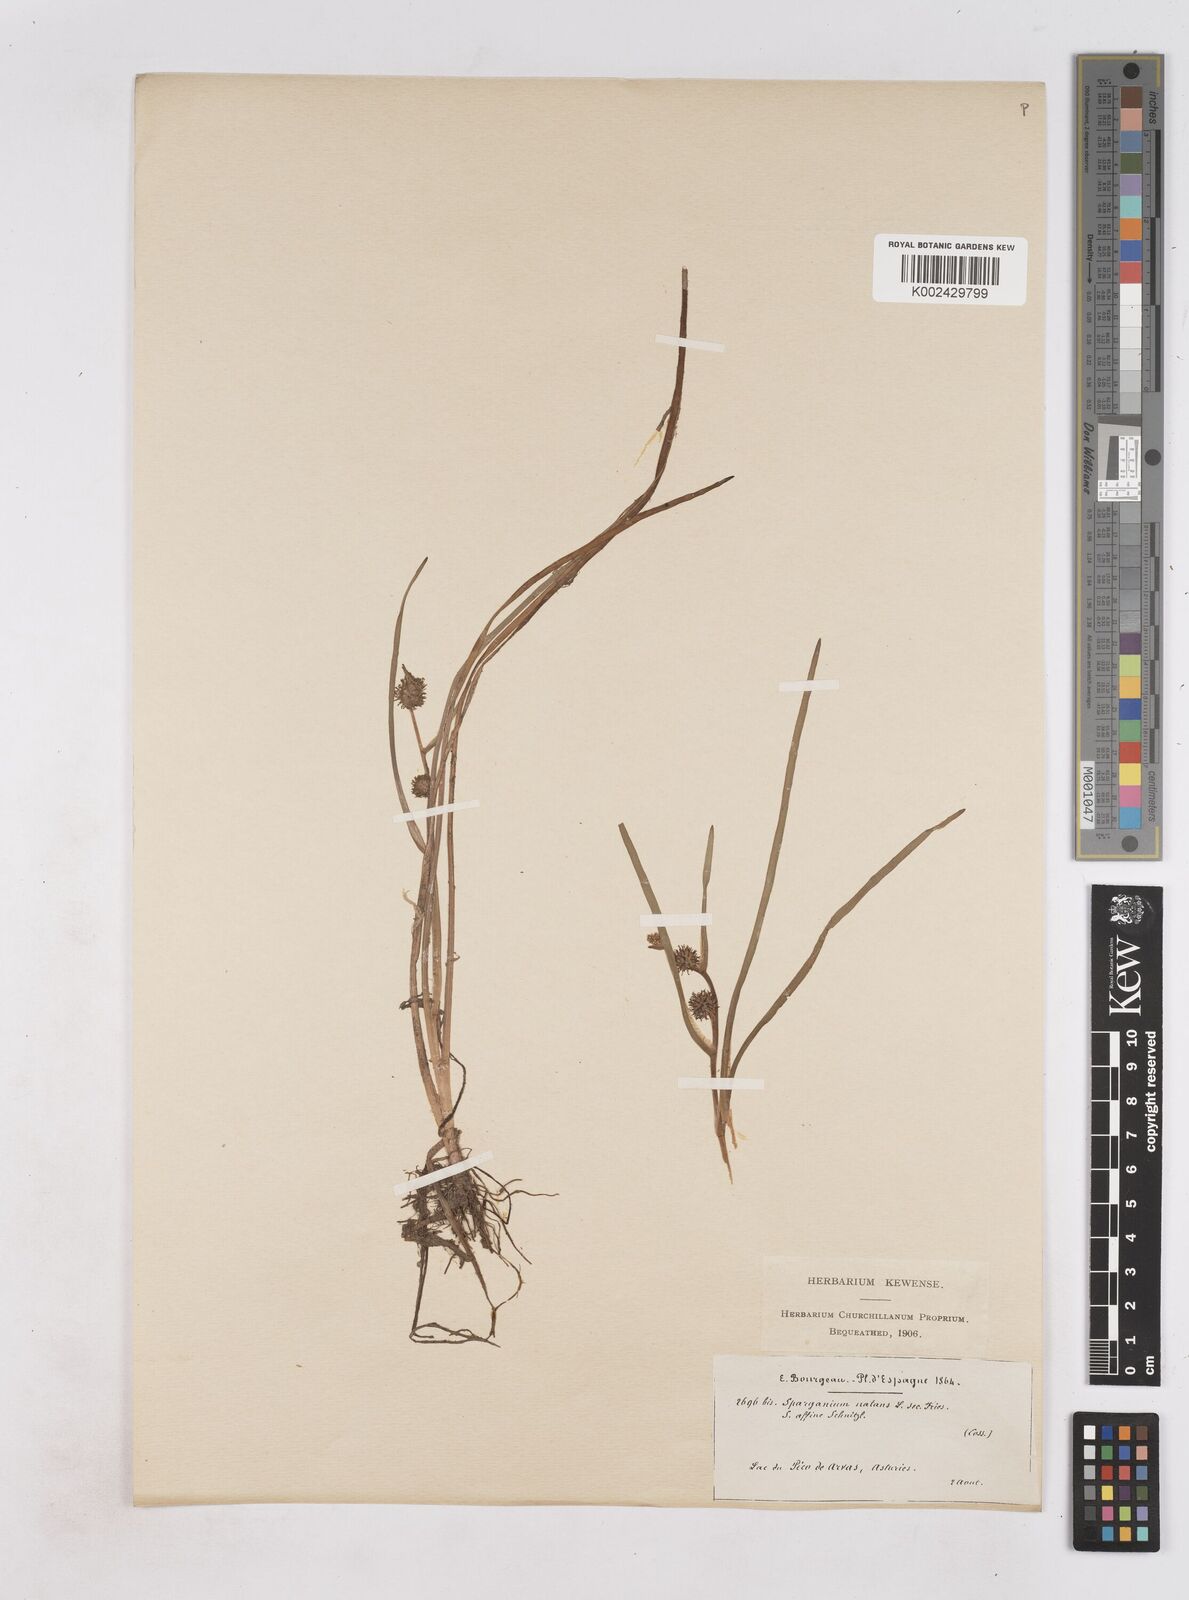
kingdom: Plantae
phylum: Tracheophyta
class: Liliopsida
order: Poales
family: Typhaceae
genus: Sparganium
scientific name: Sparganium angustifolium
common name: Floating bur-reed
